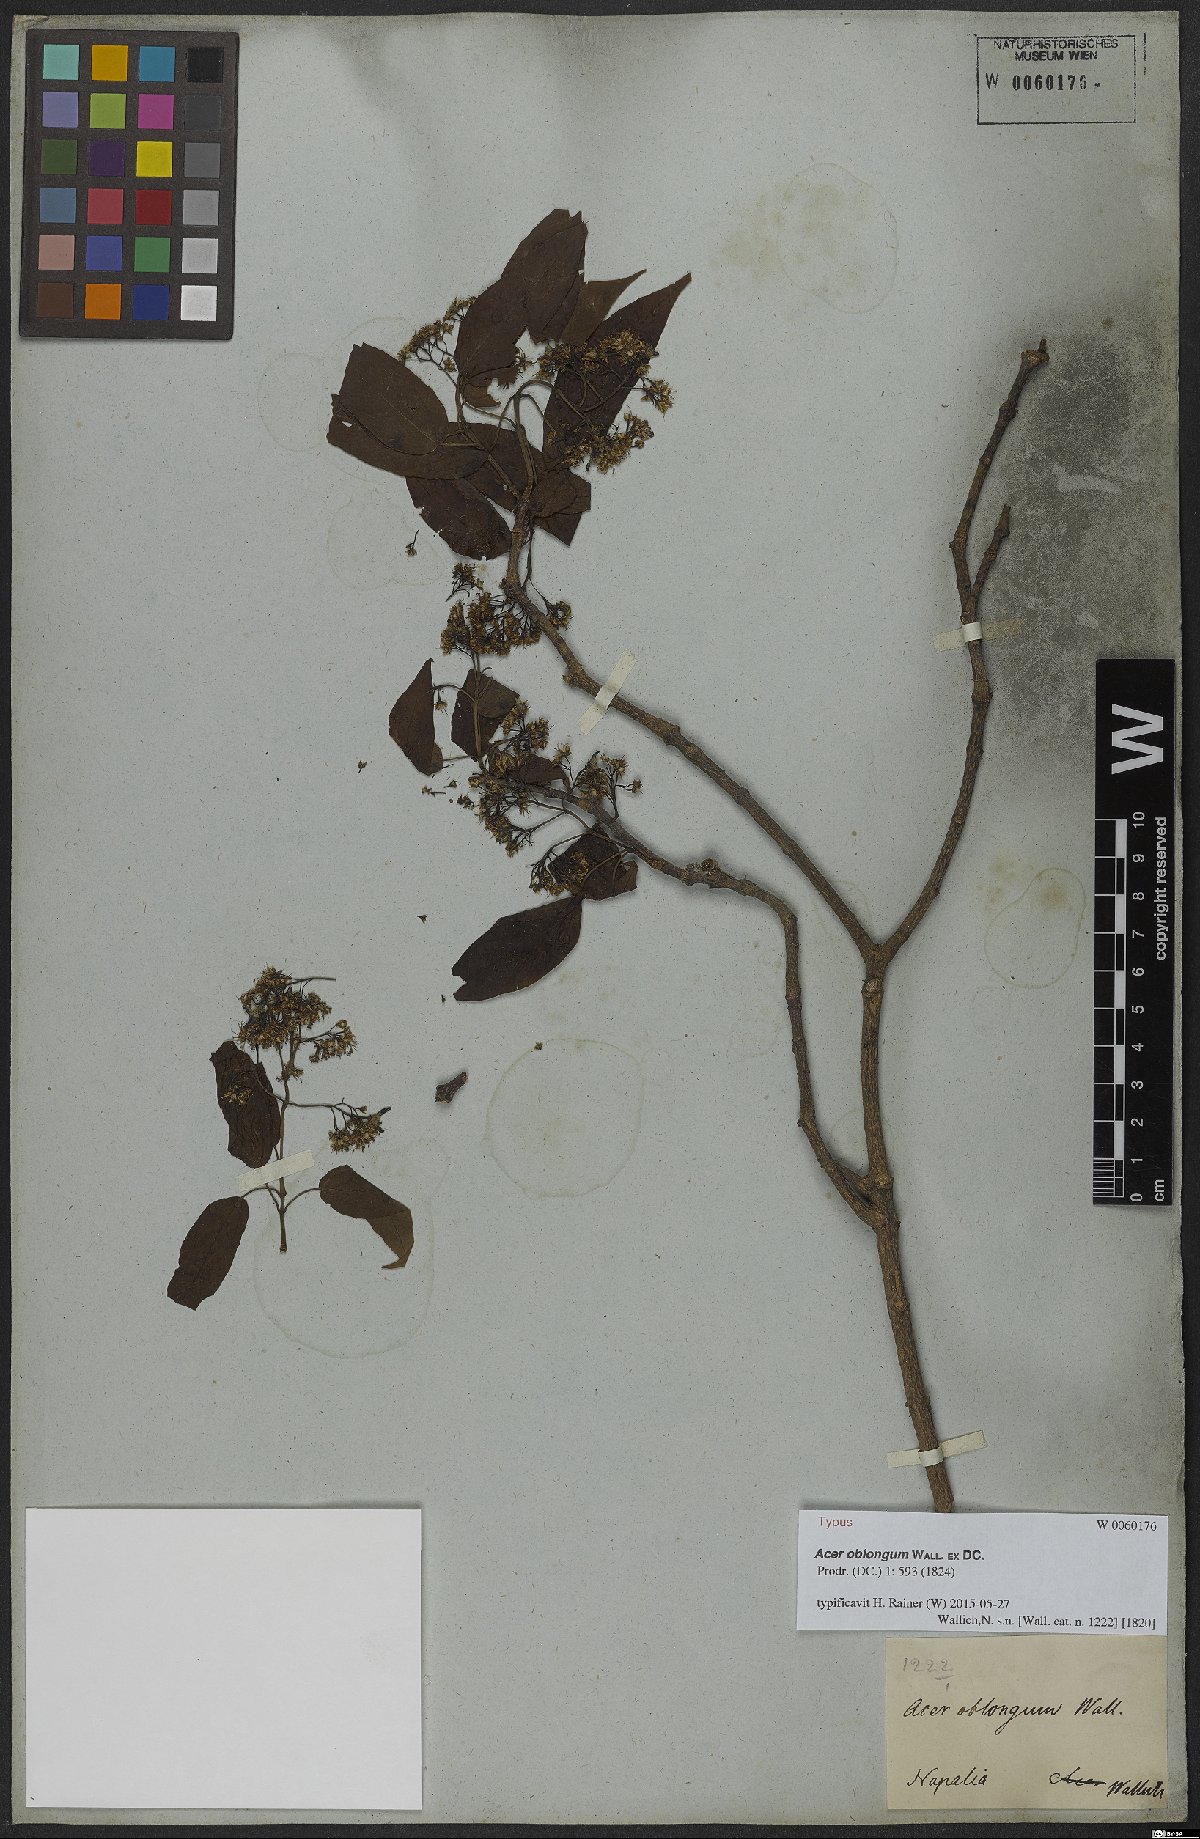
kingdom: Plantae
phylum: Tracheophyta
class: Magnoliopsida
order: Sapindales
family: Sapindaceae
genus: Acer
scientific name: Acer oblongum
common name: Himalayan maple
